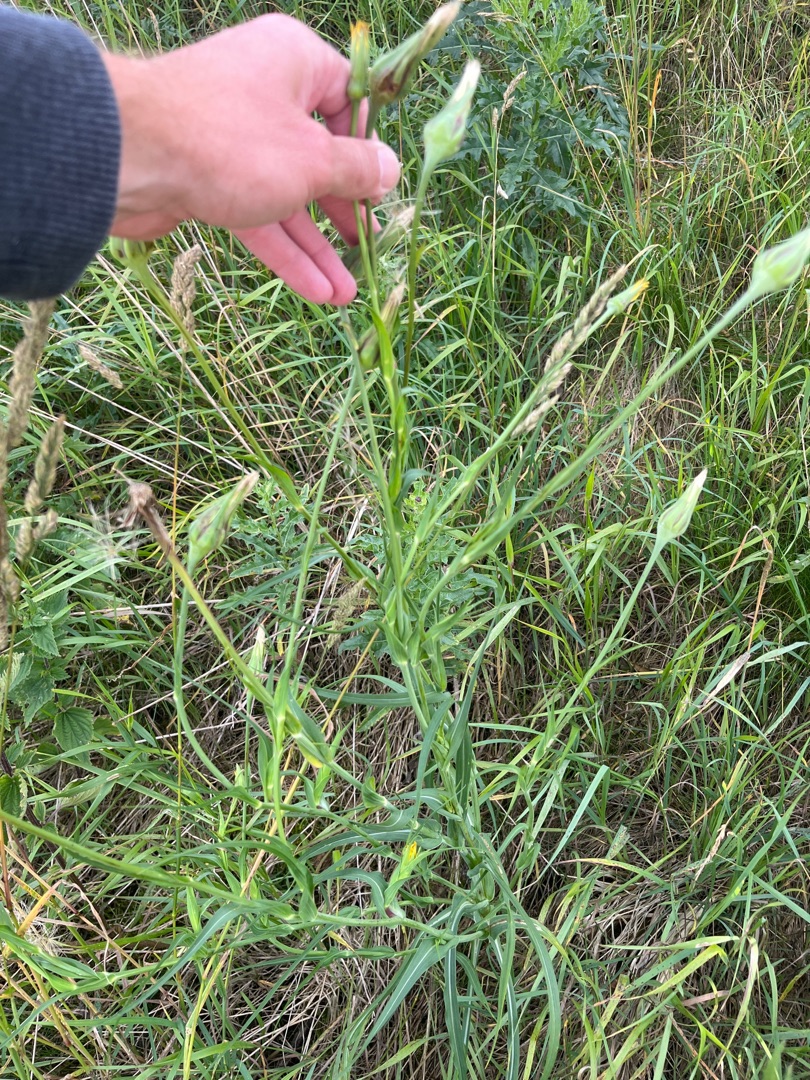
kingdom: Plantae
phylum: Tracheophyta
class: Magnoliopsida
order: Asterales
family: Asteraceae
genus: Tragopogon
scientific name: Tragopogon pratensis
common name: Gedeskæg
